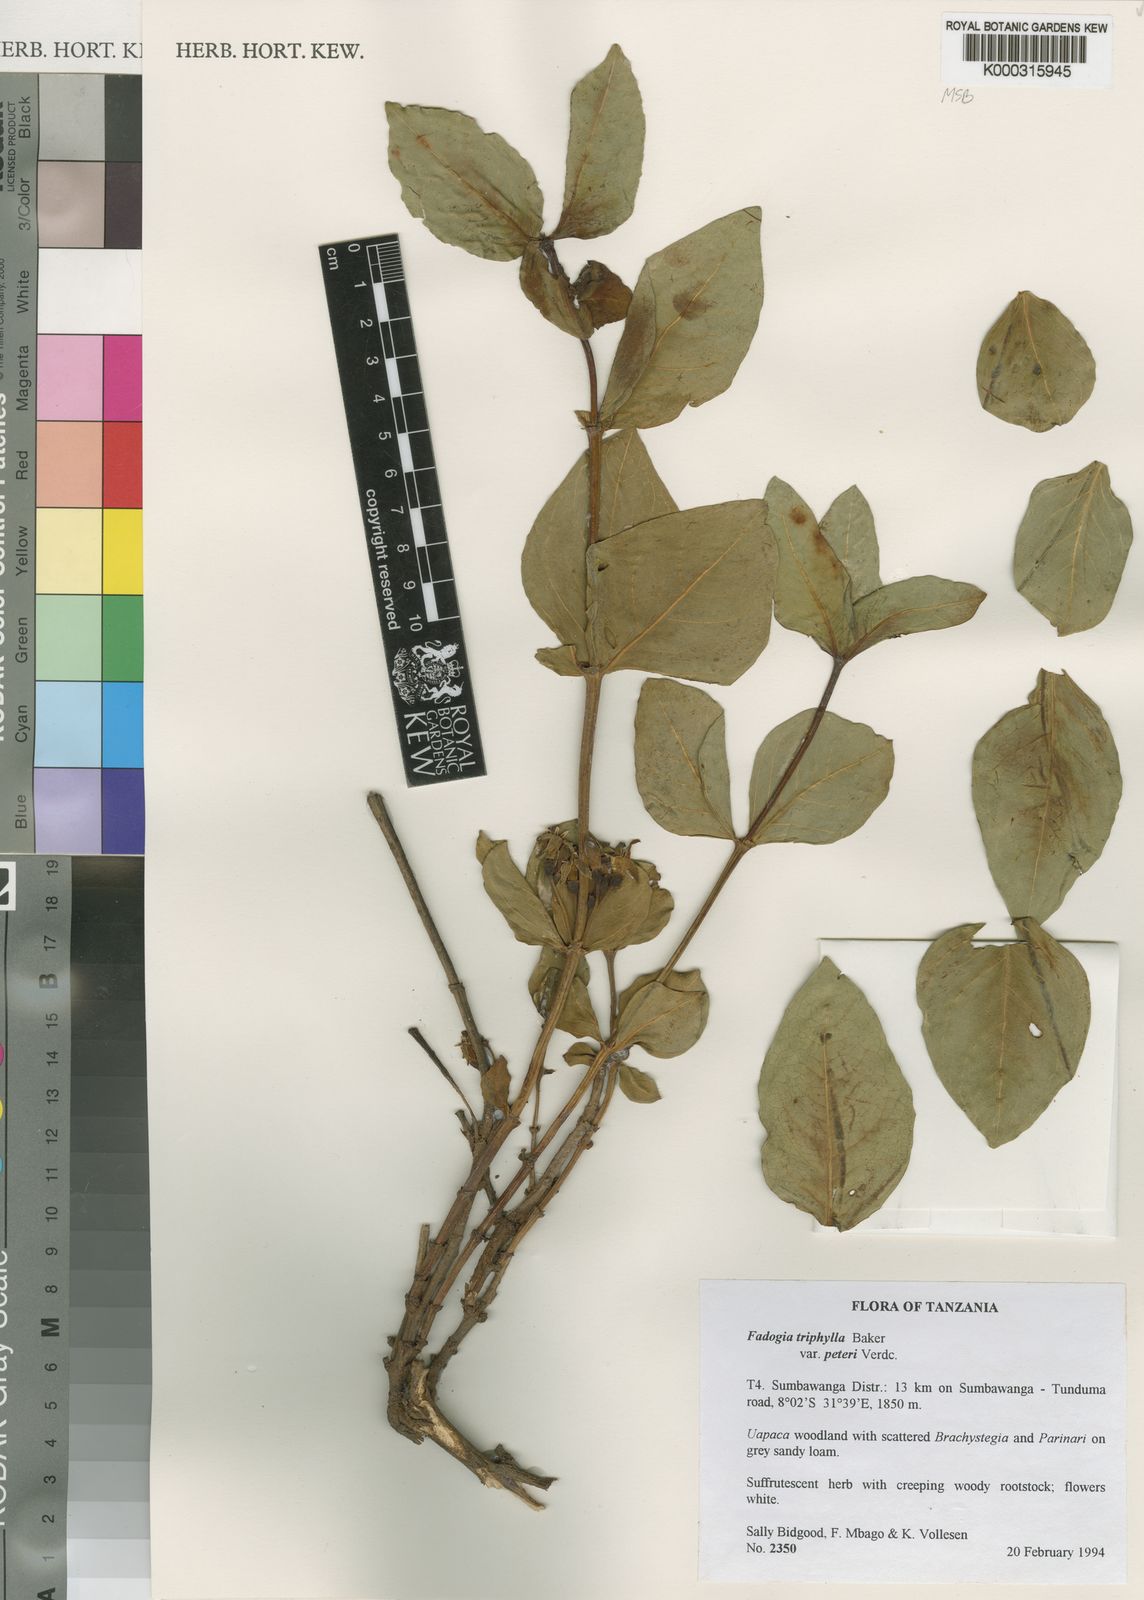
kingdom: Plantae
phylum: Tracheophyta
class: Magnoliopsida
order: Gentianales
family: Rubiaceae
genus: Fadogia
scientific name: Fadogia triphylla
